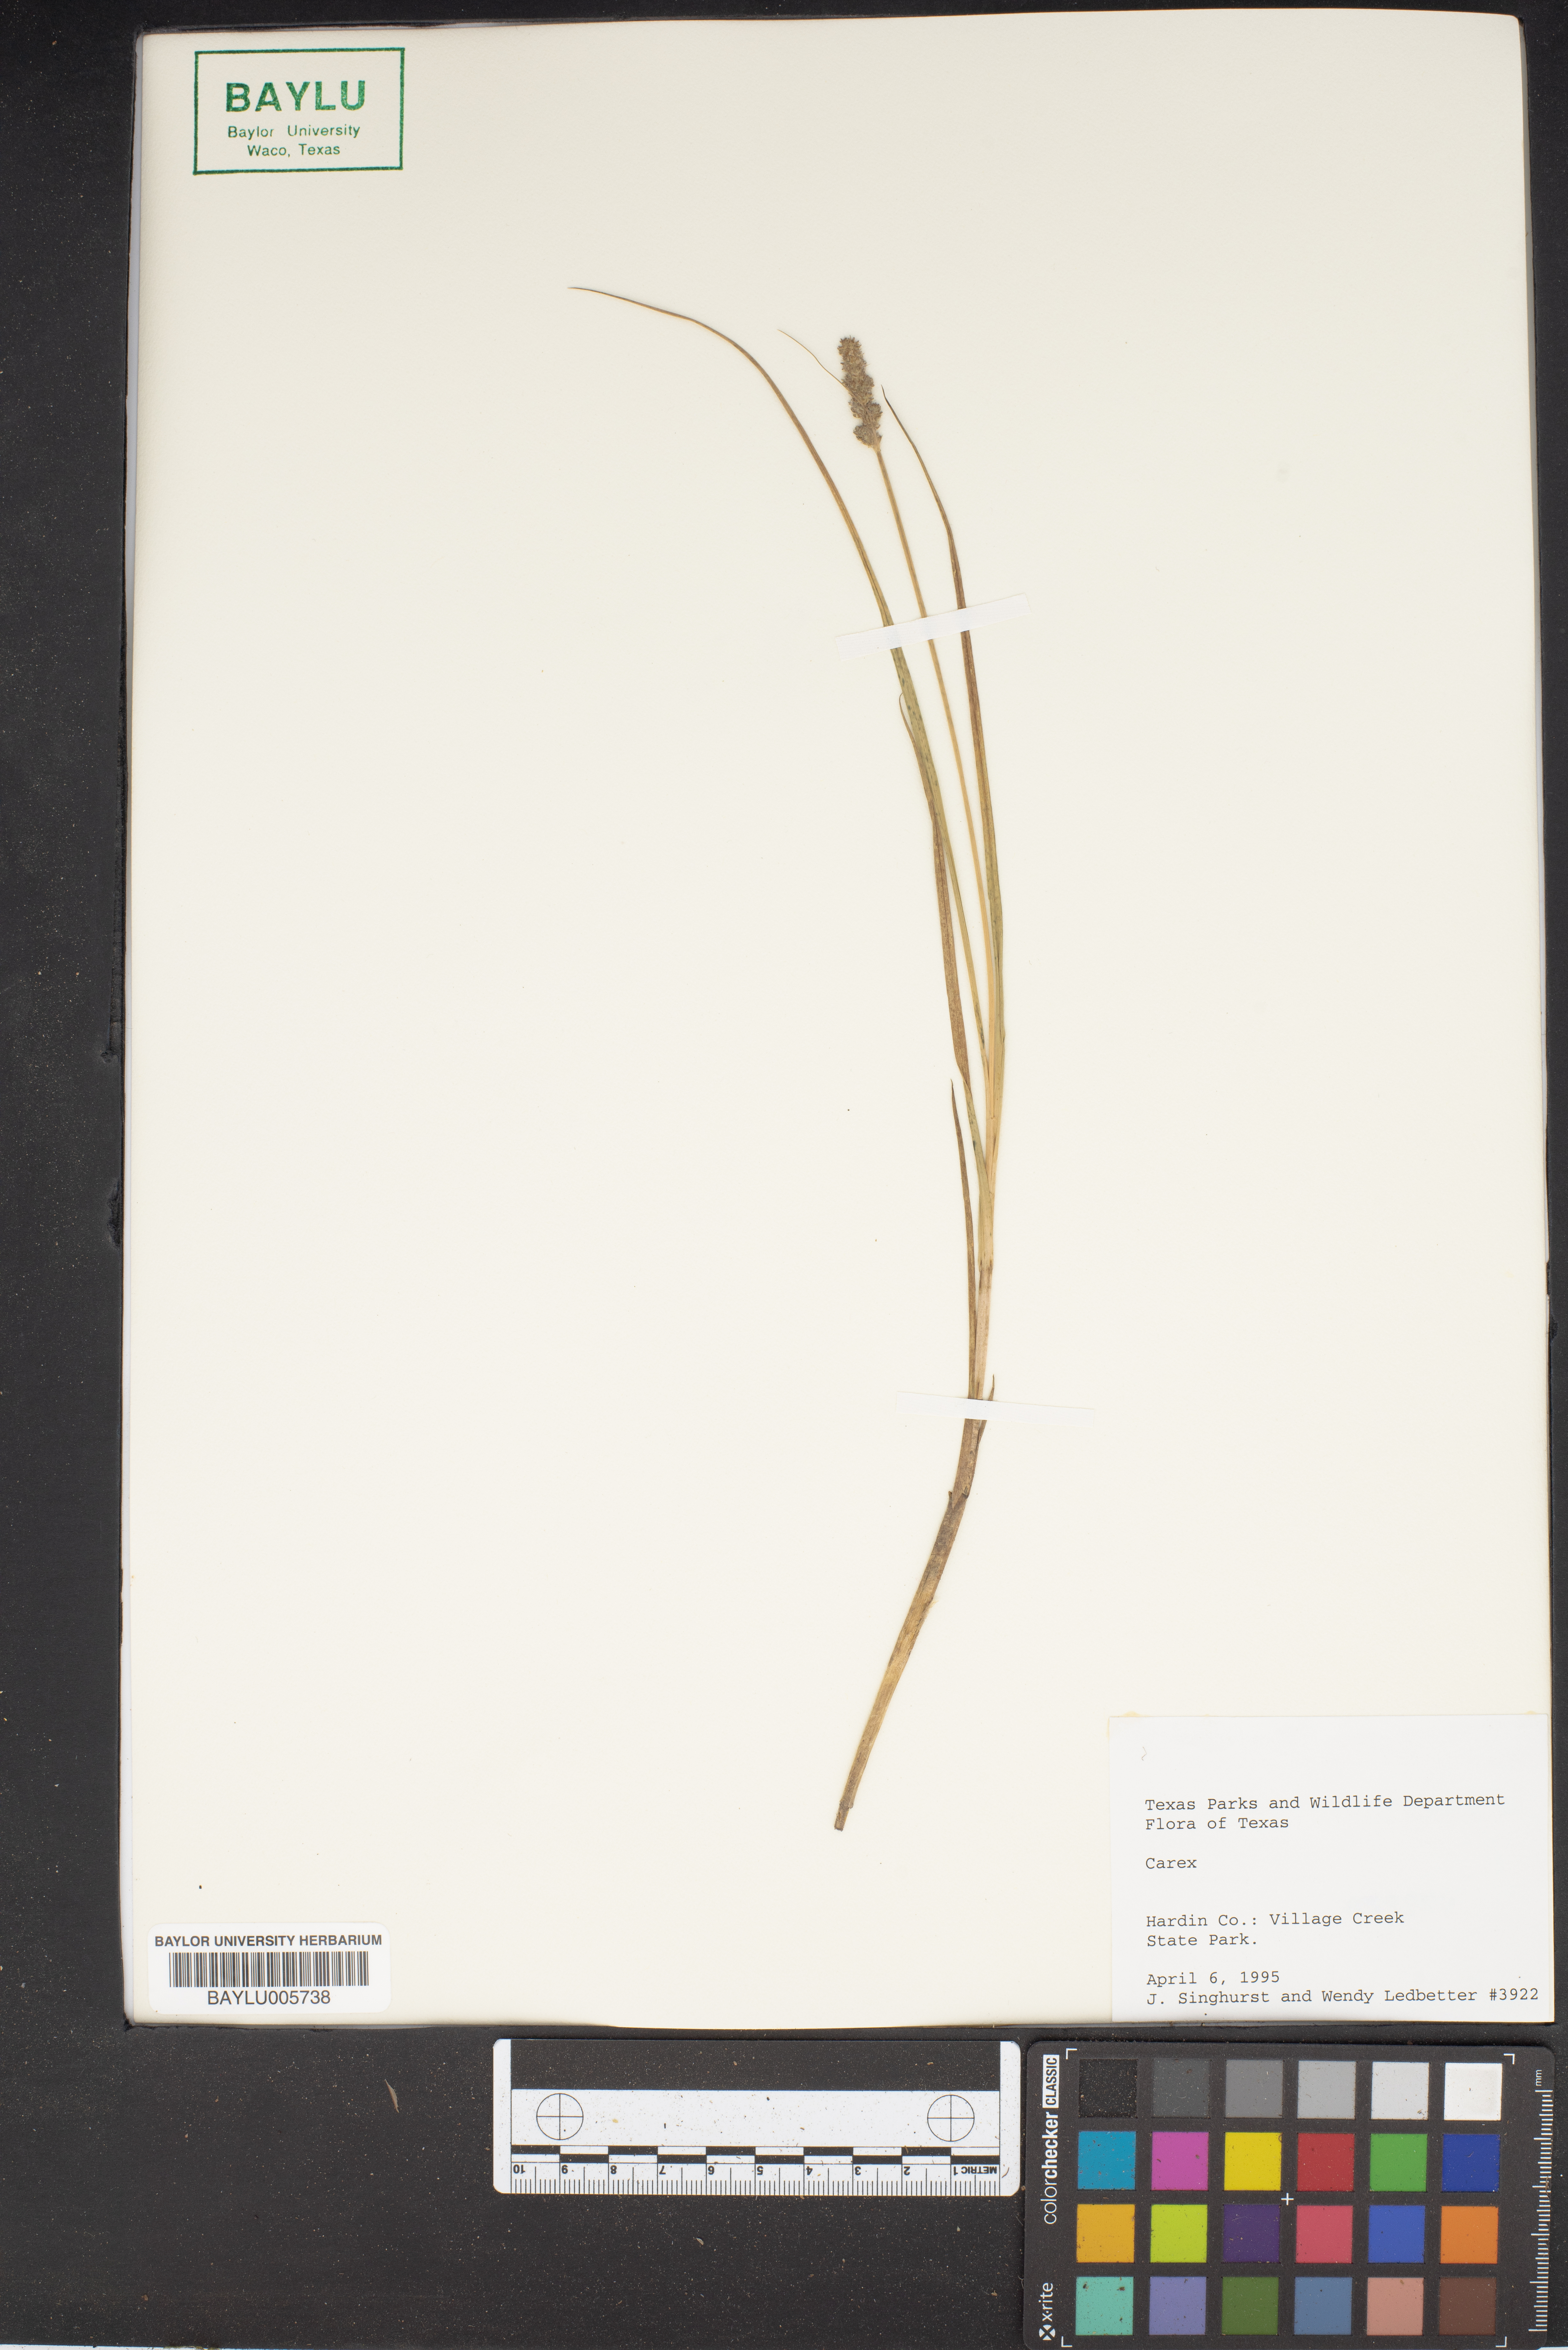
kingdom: Plantae
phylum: Tracheophyta
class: Liliopsida
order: Poales
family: Cyperaceae
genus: Carex
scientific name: Carex
